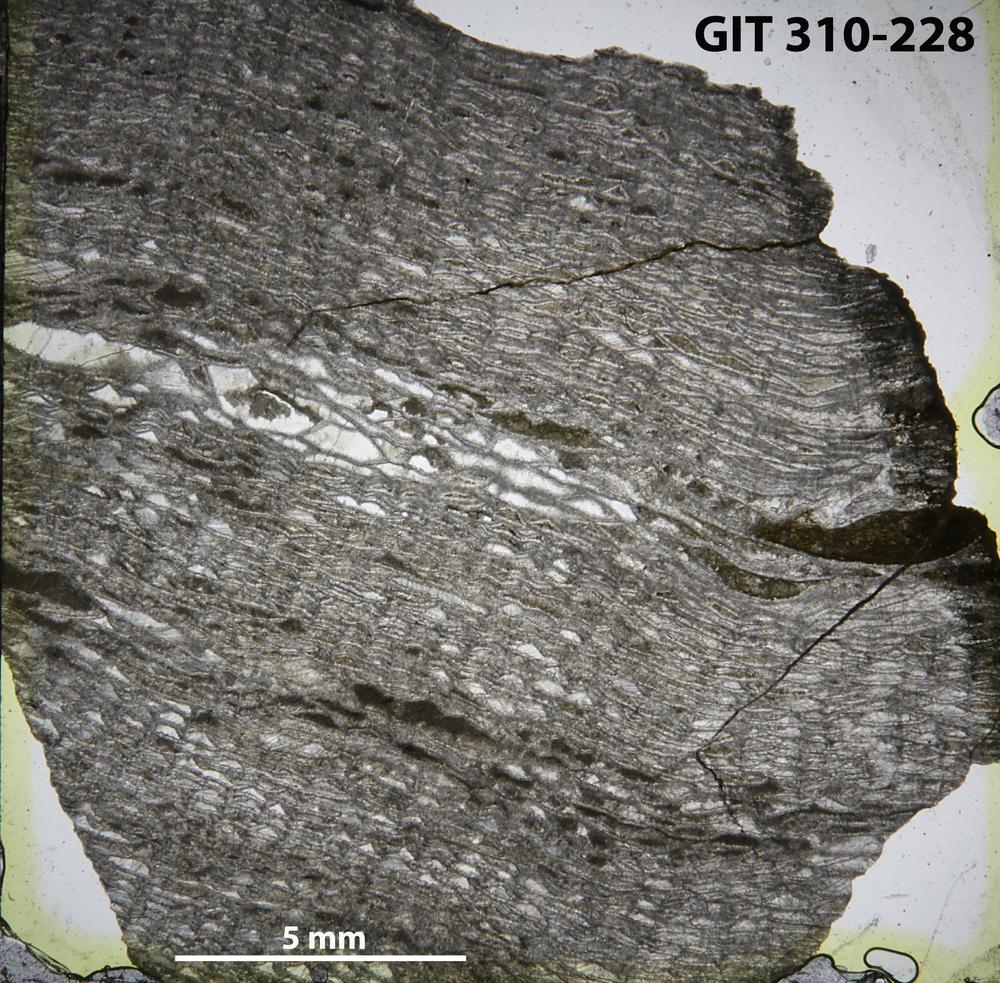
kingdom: Animalia
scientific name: Animalia
